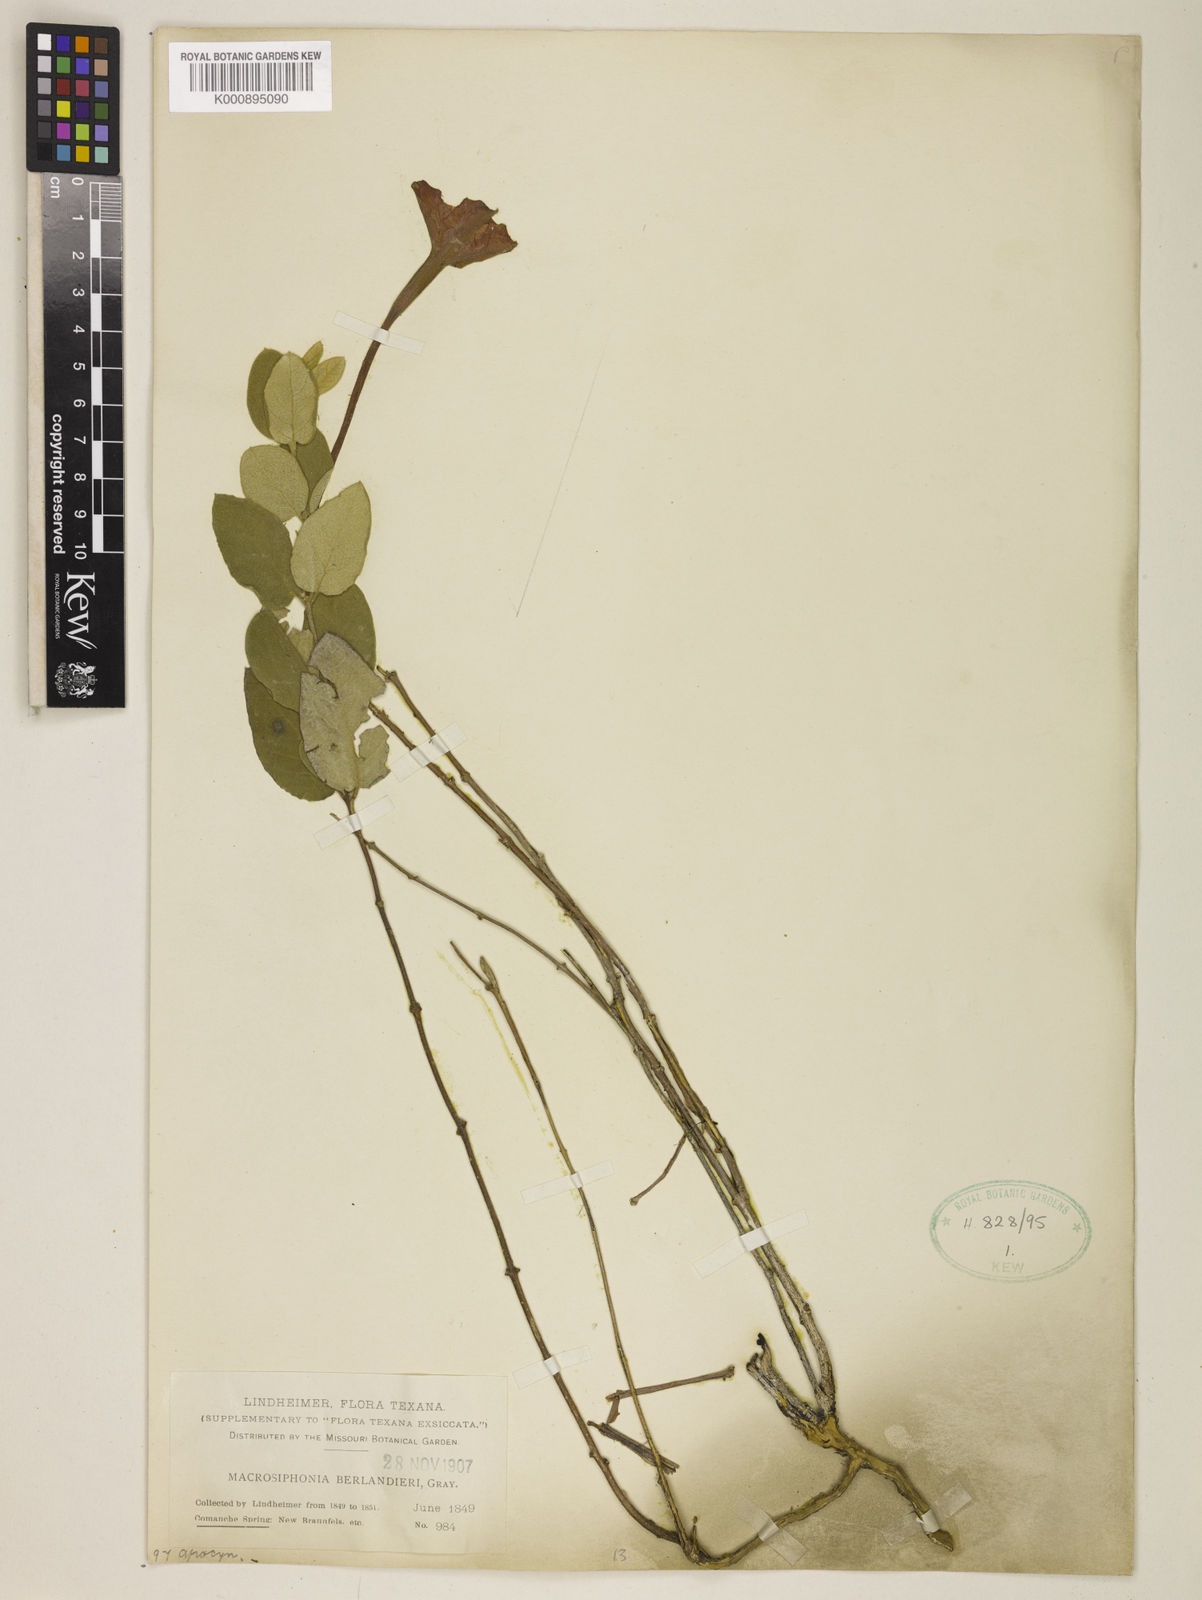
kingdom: Plantae
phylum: Tracheophyta
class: Magnoliopsida
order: Gentianales
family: Apocynaceae
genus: Mandevilla
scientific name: Mandevilla macrosiphon
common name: Plateau rocktrumpet
